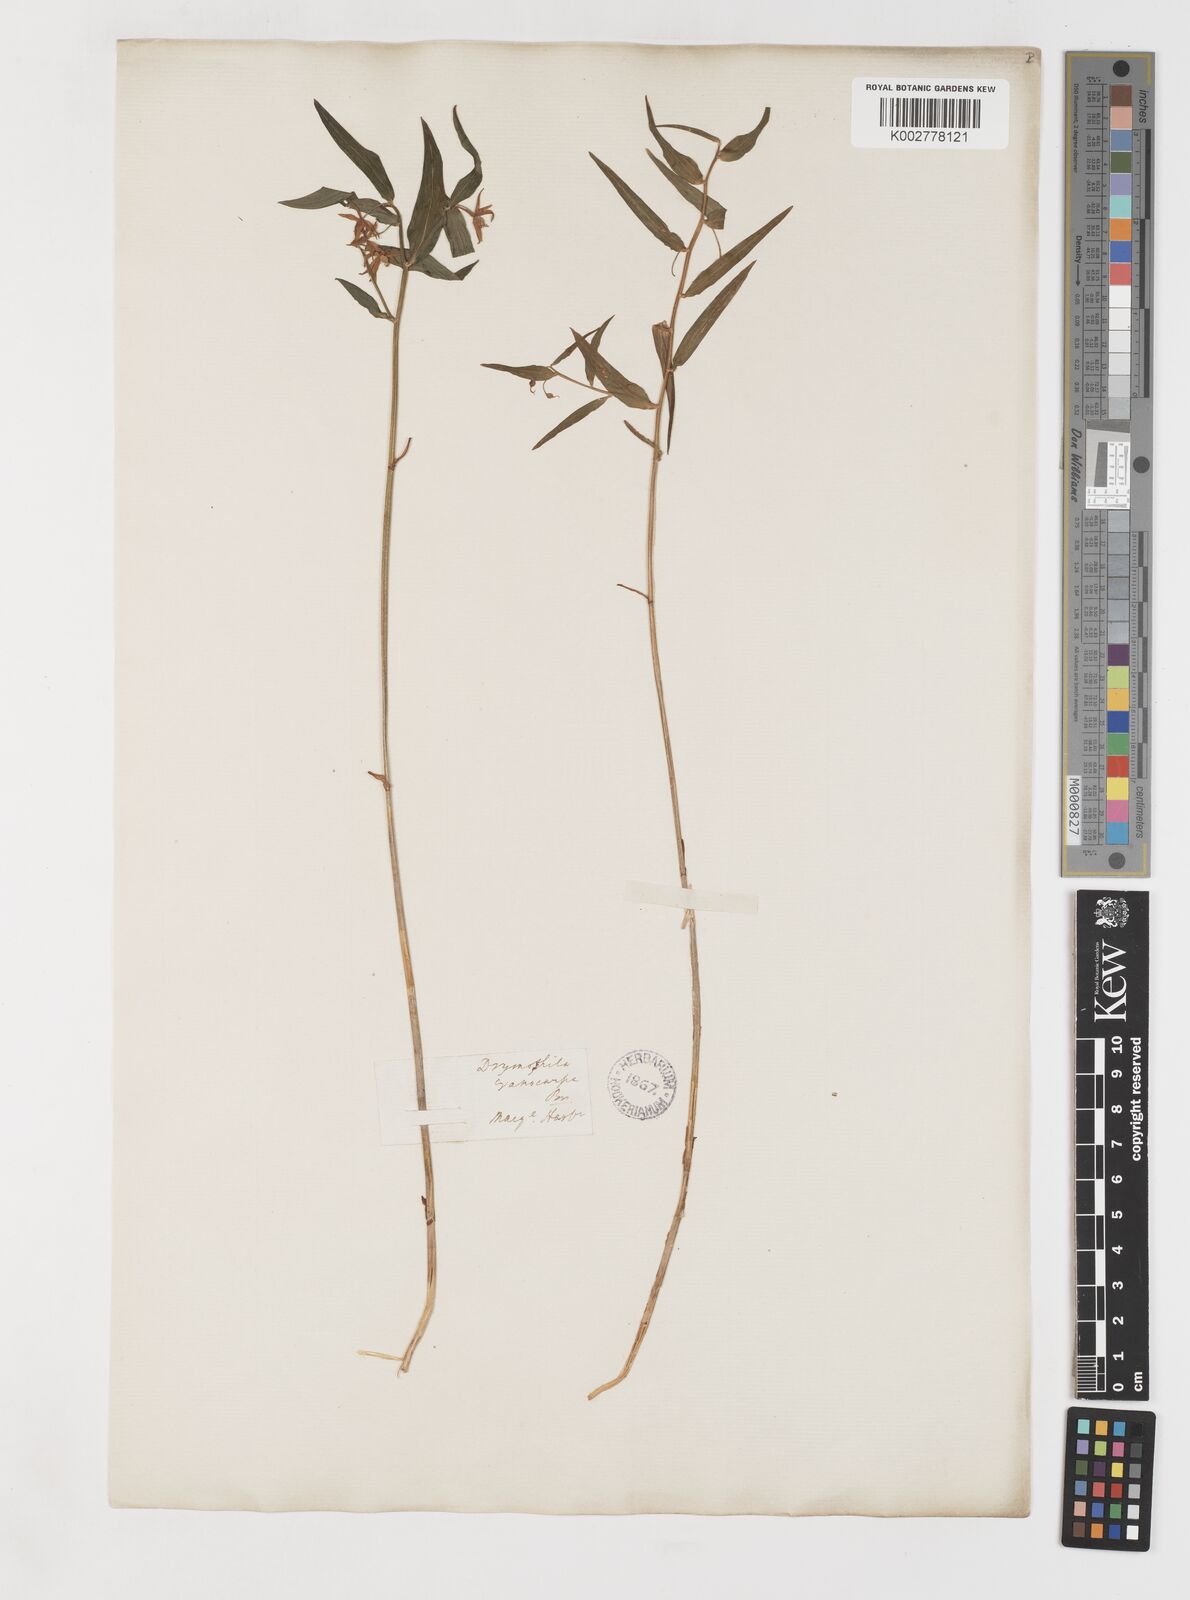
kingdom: Plantae
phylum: Tracheophyta
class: Liliopsida
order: Liliales
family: Alstroemeriaceae
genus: Drymophila
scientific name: Drymophila cyanocarpa
